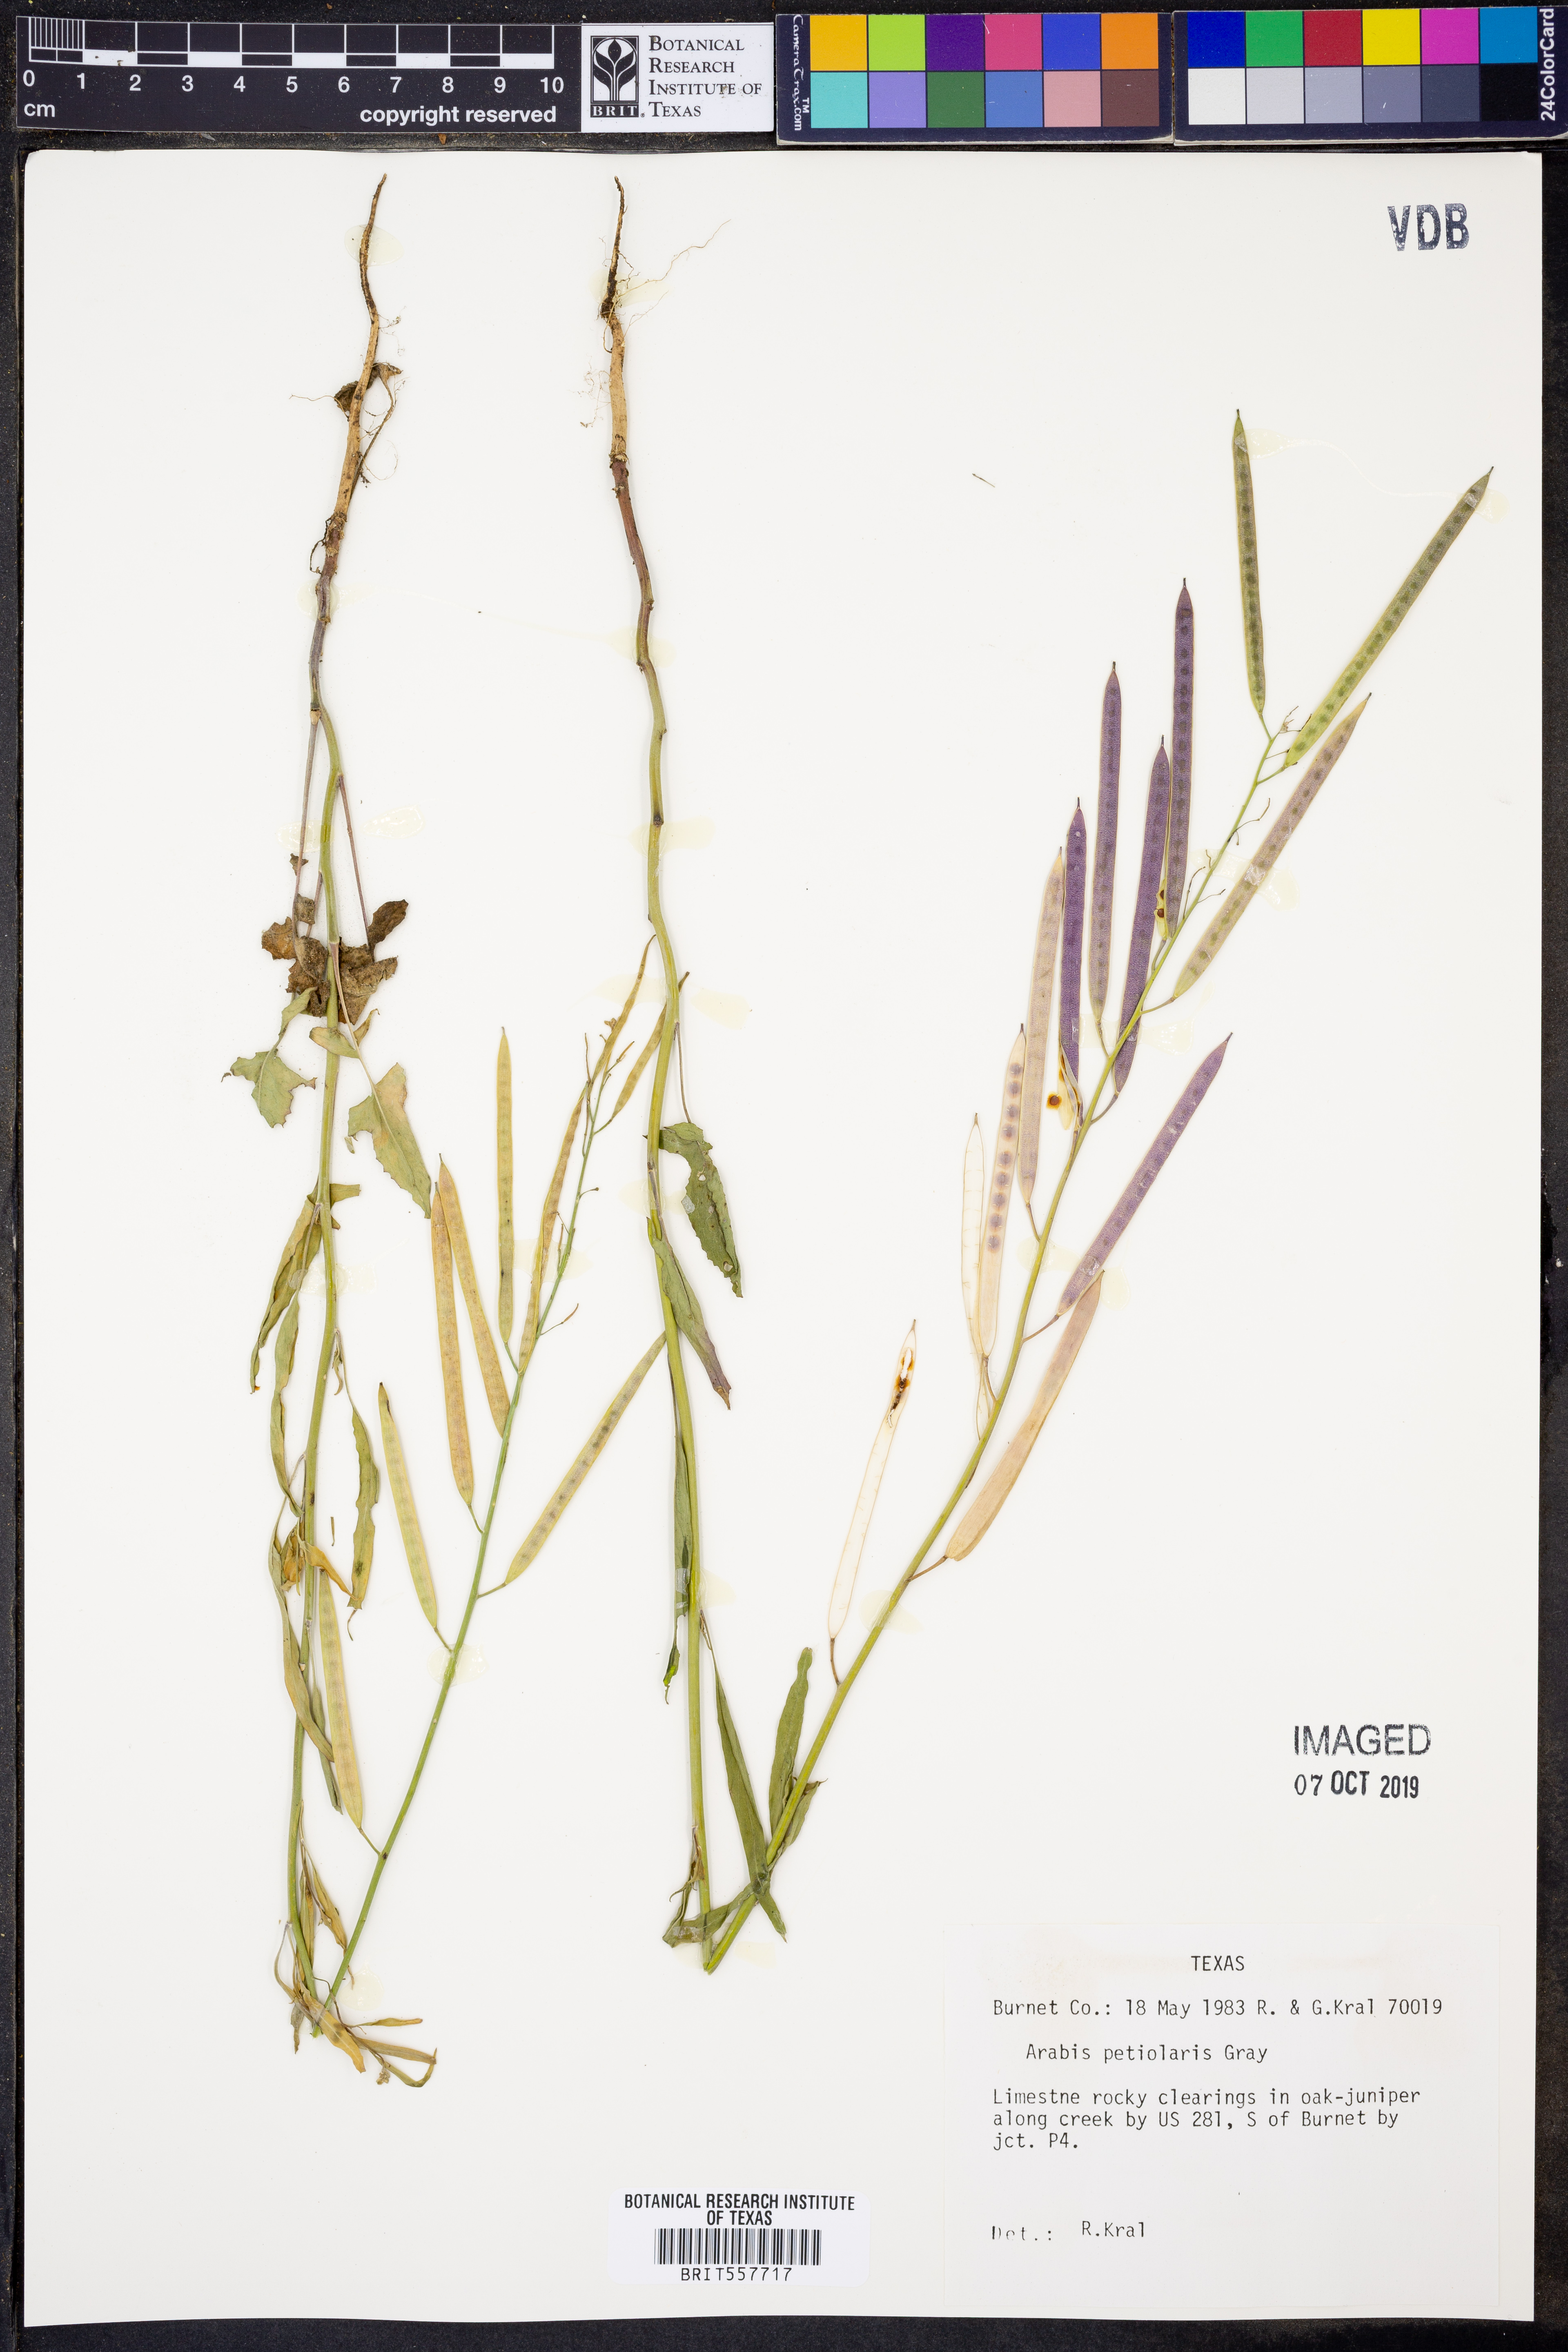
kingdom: Plantae
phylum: Tracheophyta
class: Magnoliopsida
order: Brassicales
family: Brassicaceae
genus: Streptanthus
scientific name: Streptanthus petiolaris
